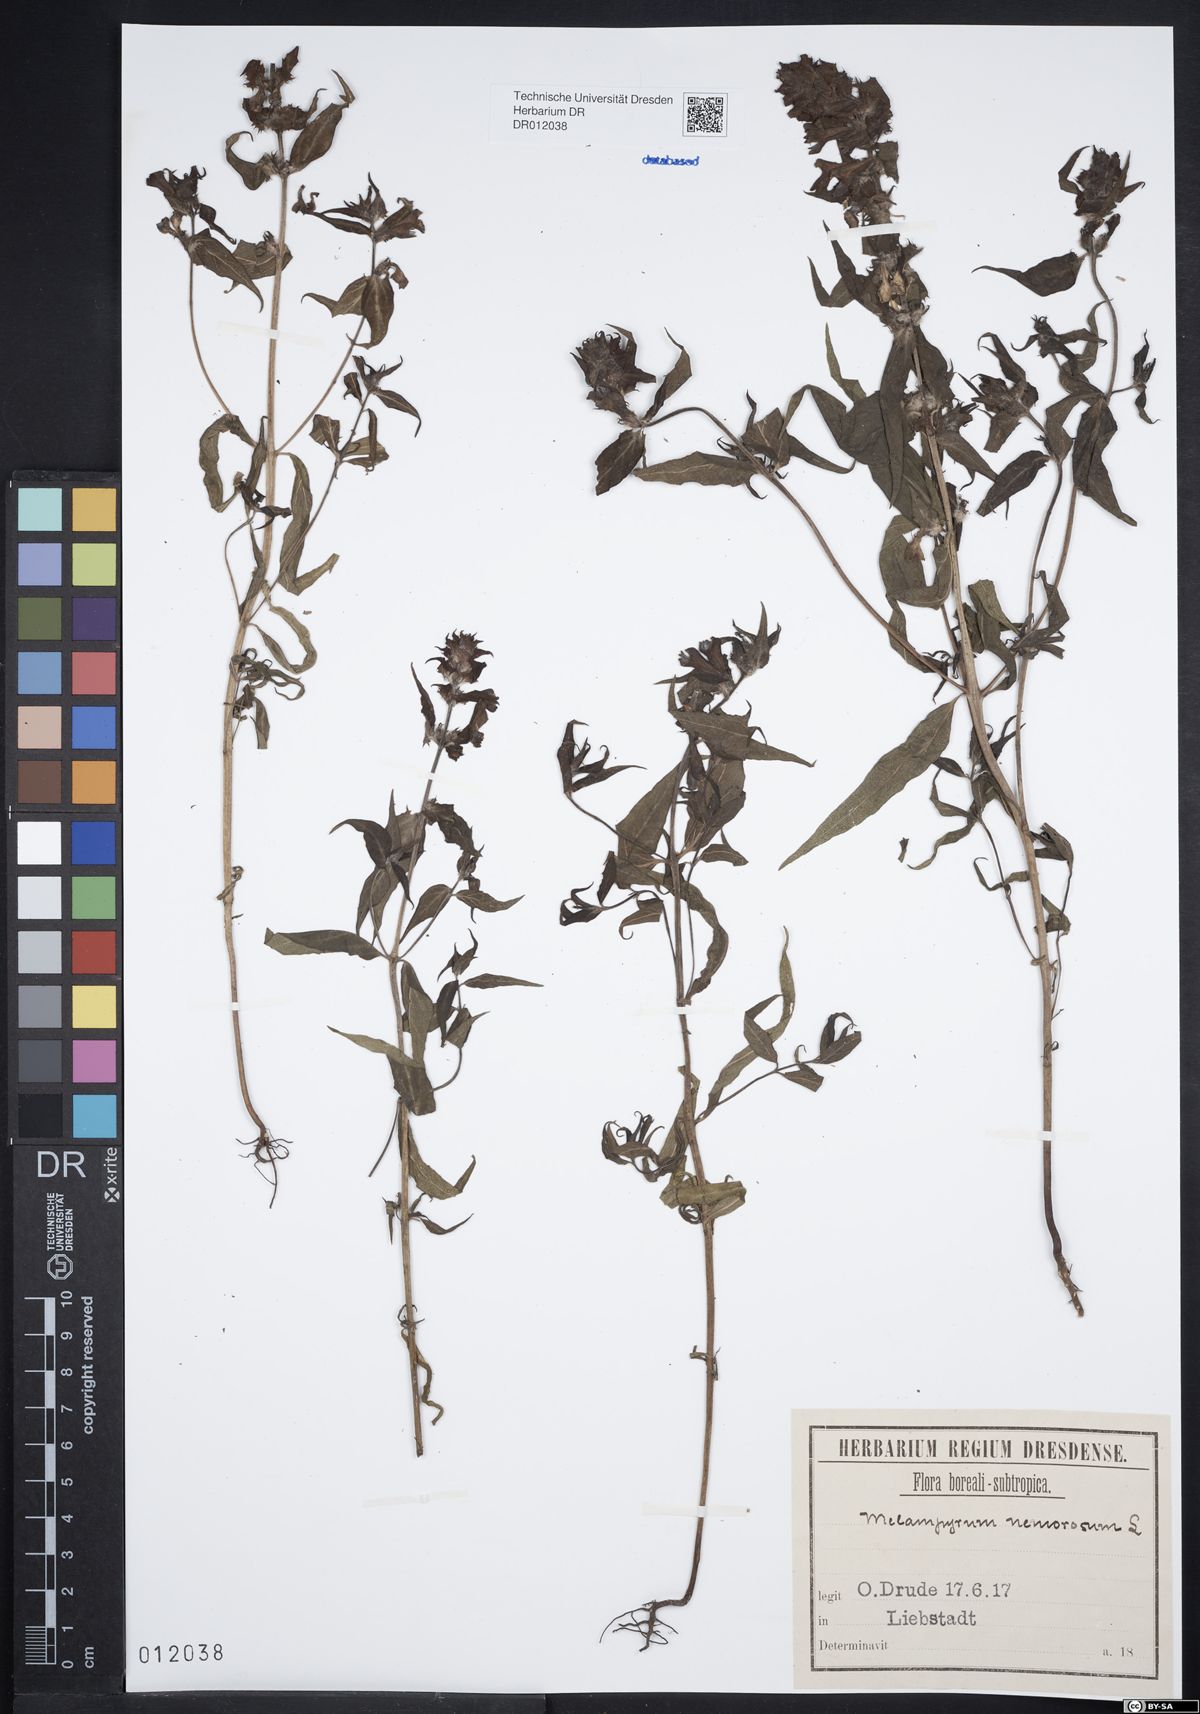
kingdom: Plantae
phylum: Tracheophyta
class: Magnoliopsida
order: Lamiales
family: Orobanchaceae
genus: Melampyrum
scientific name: Melampyrum nemorosum
